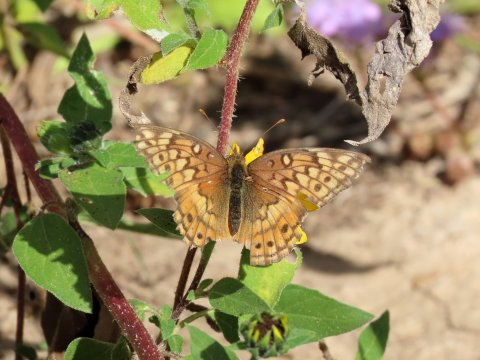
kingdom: Animalia
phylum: Arthropoda
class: Insecta
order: Lepidoptera
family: Nymphalidae
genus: Euptoieta
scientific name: Euptoieta claudia
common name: Variegated Fritillary
